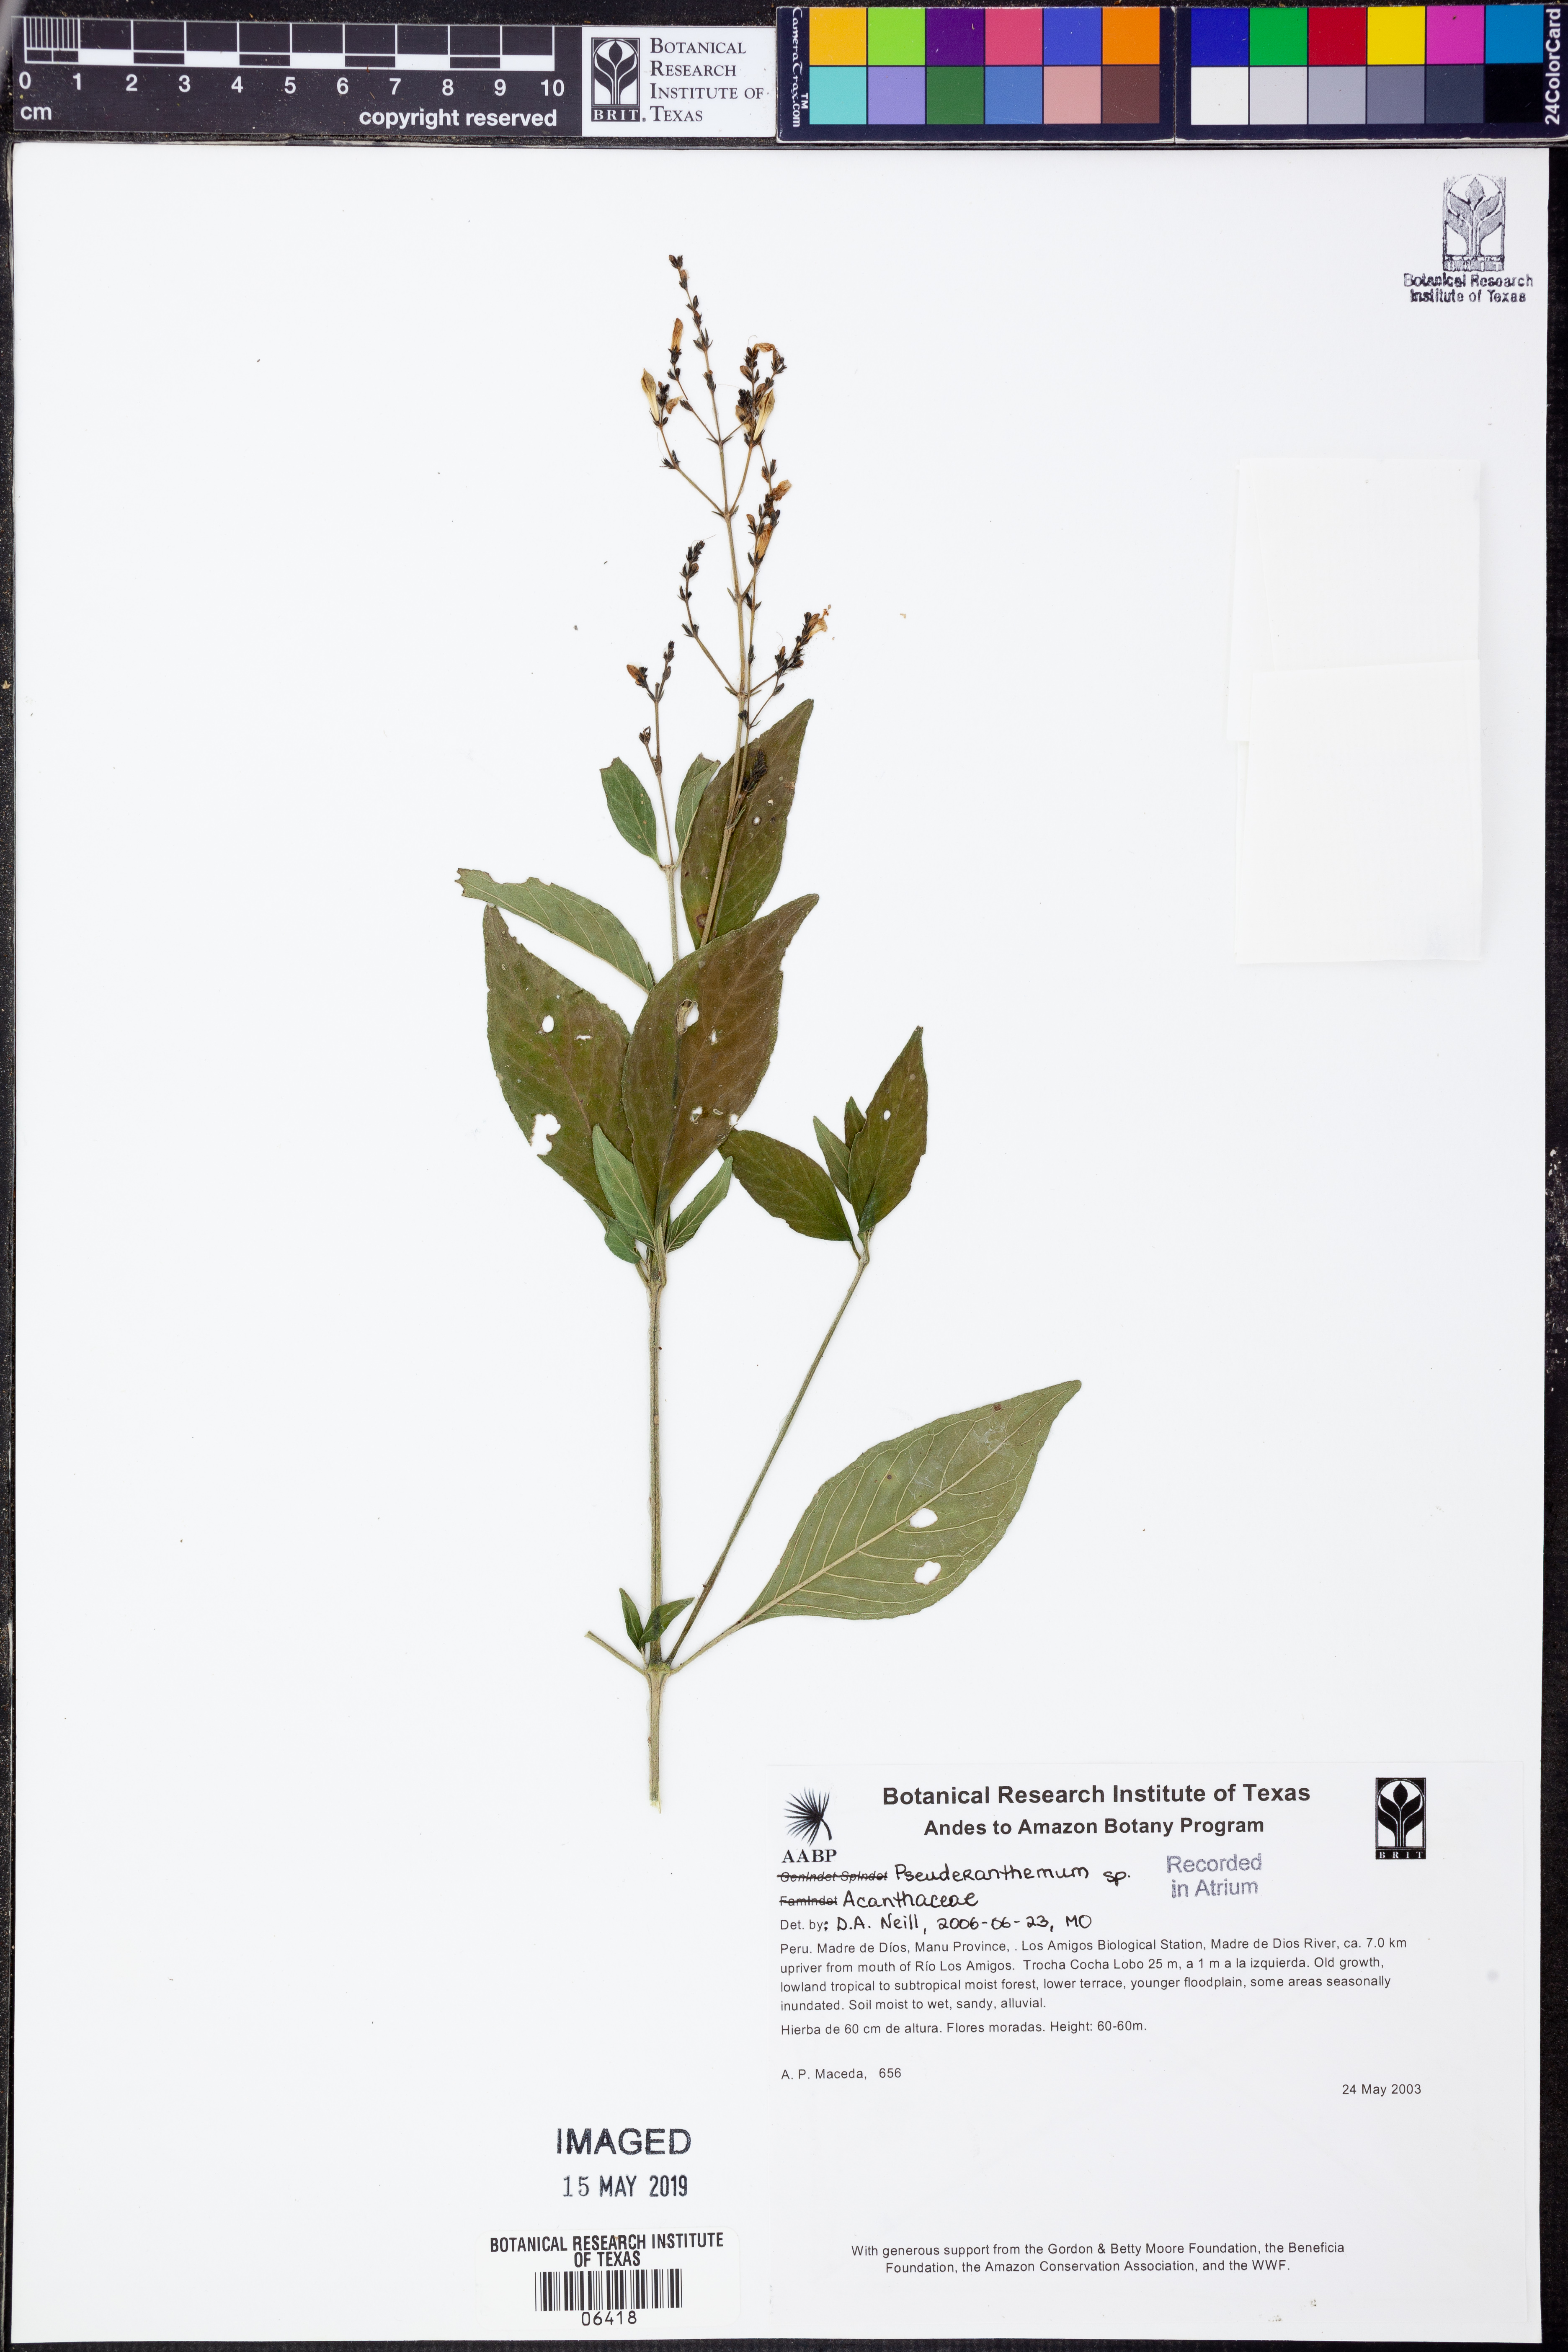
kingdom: Plantae
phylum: Tracheophyta
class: Magnoliopsida
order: Lamiales
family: Acanthaceae
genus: Pseuderanthemum
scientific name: Pseuderanthemum
